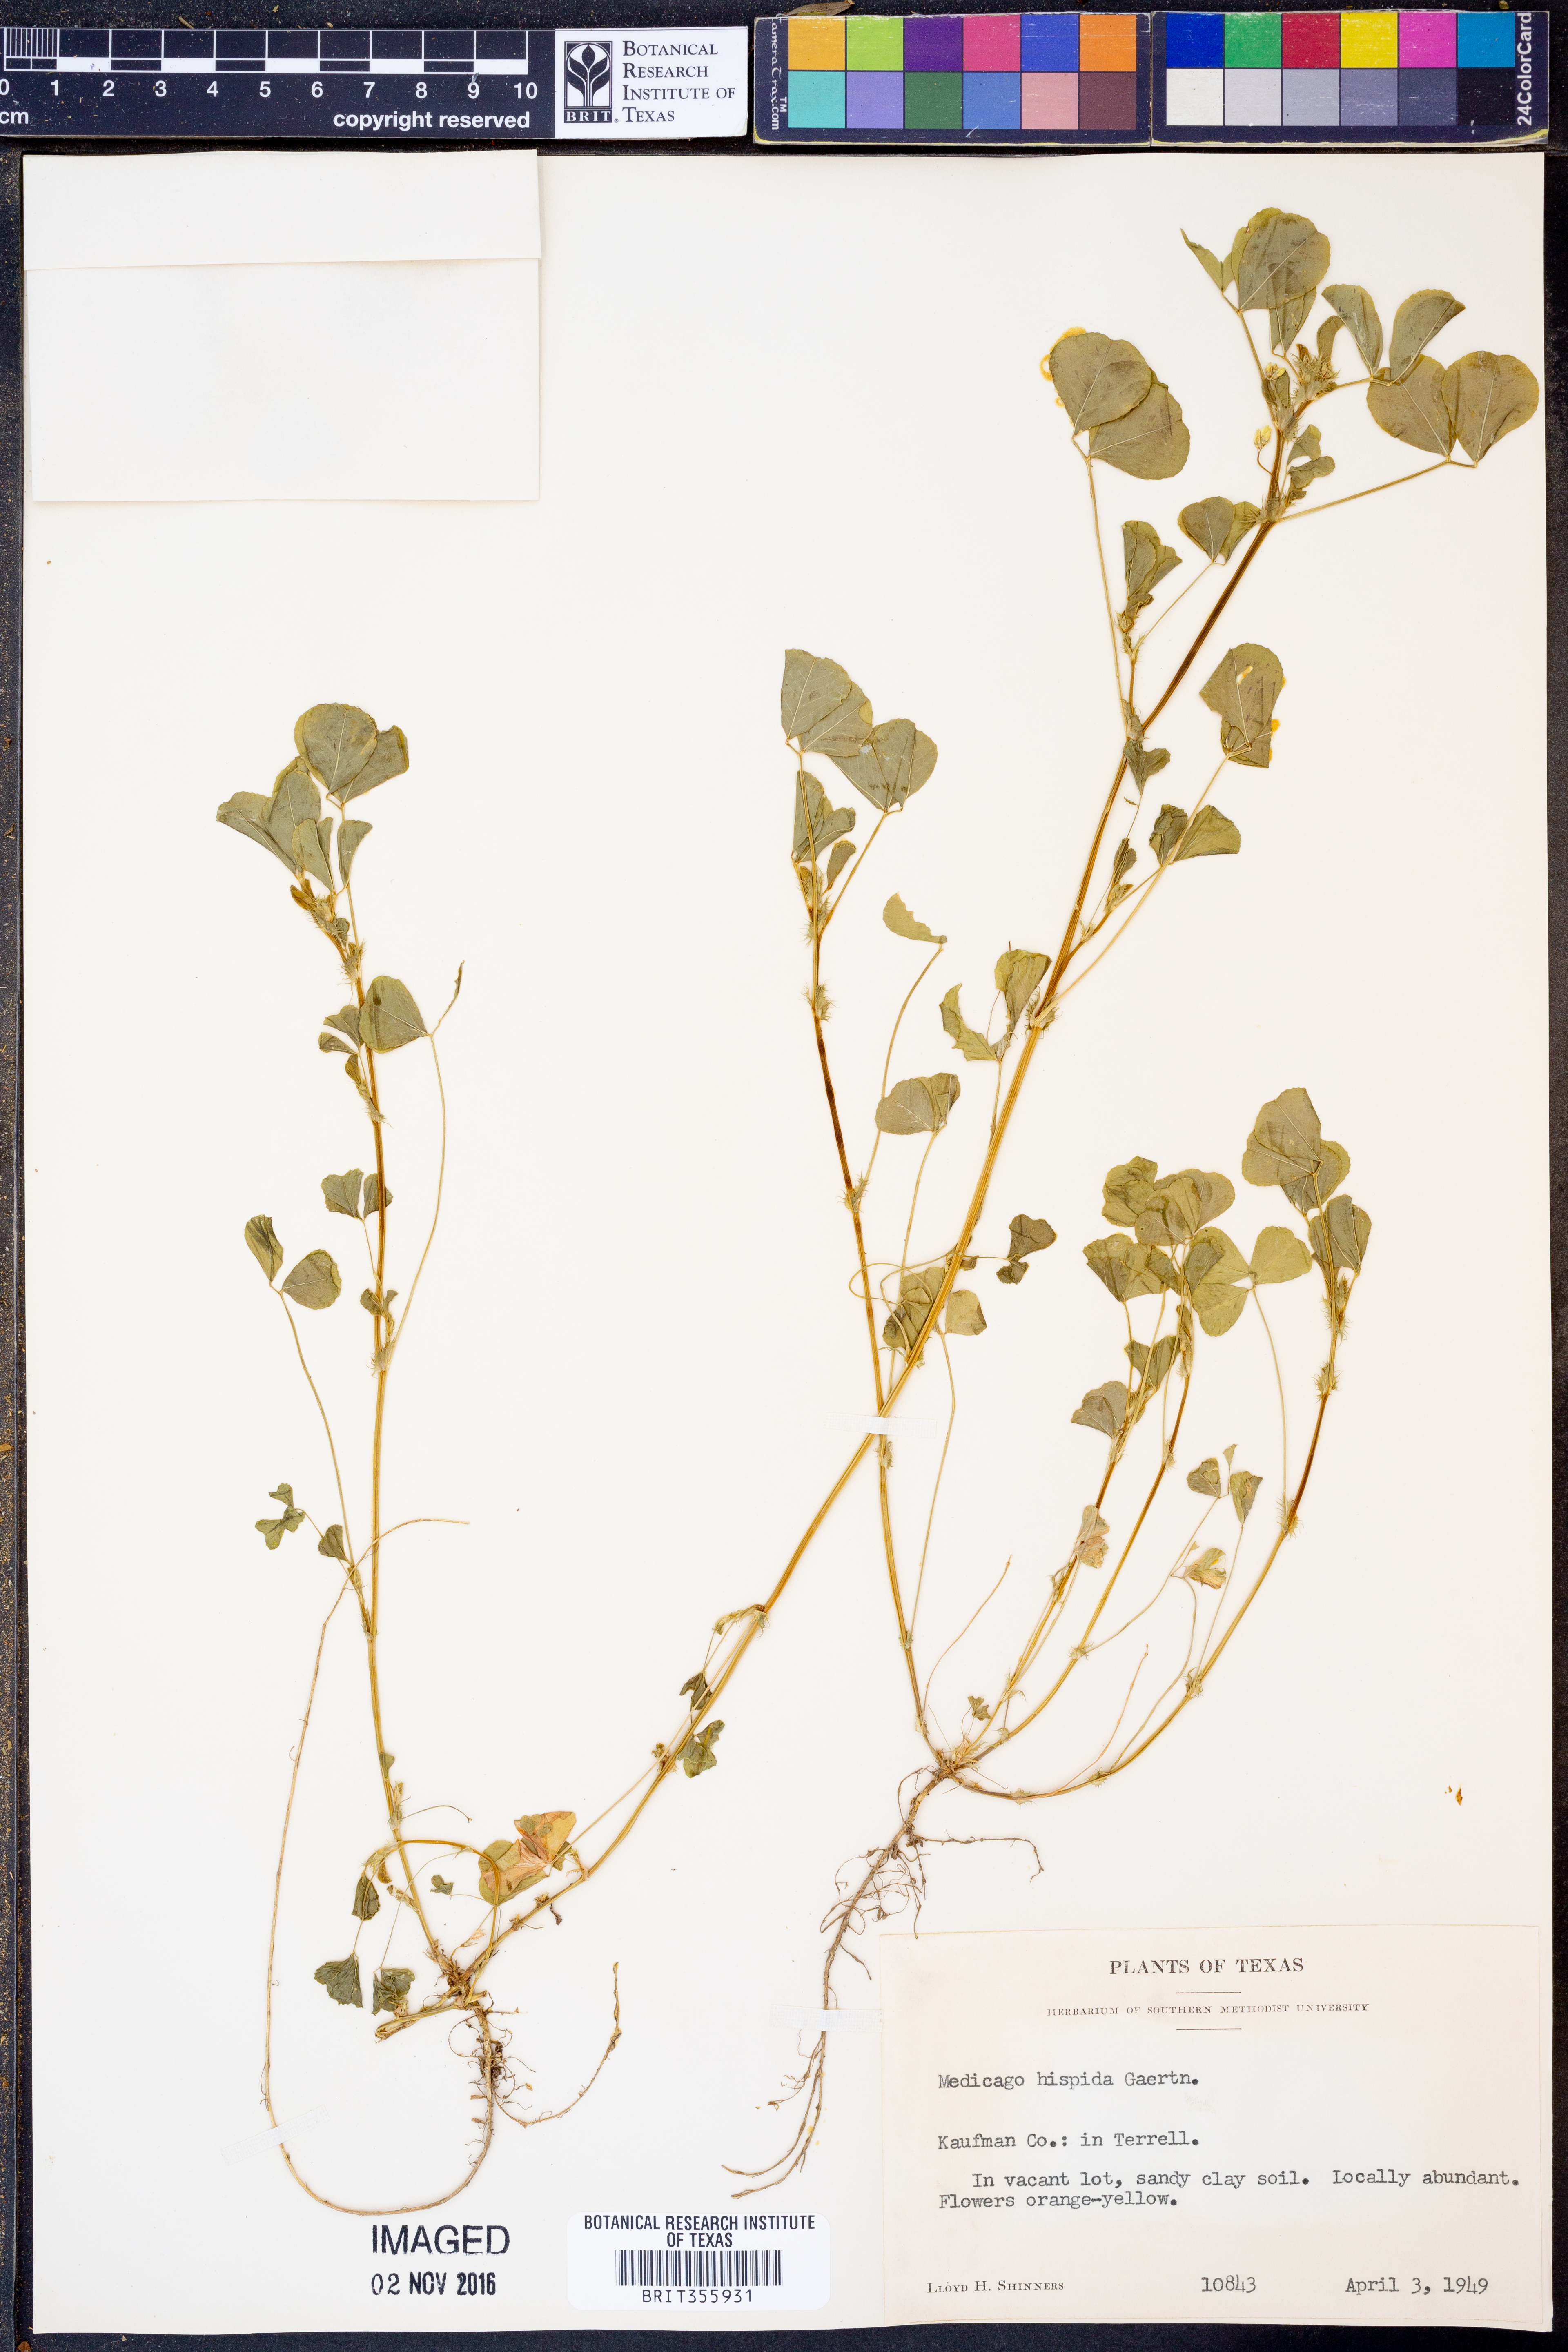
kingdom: Plantae
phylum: Tracheophyta
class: Magnoliopsida
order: Fabales
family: Fabaceae
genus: Medicago
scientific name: Medicago polymorpha
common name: Burclover
